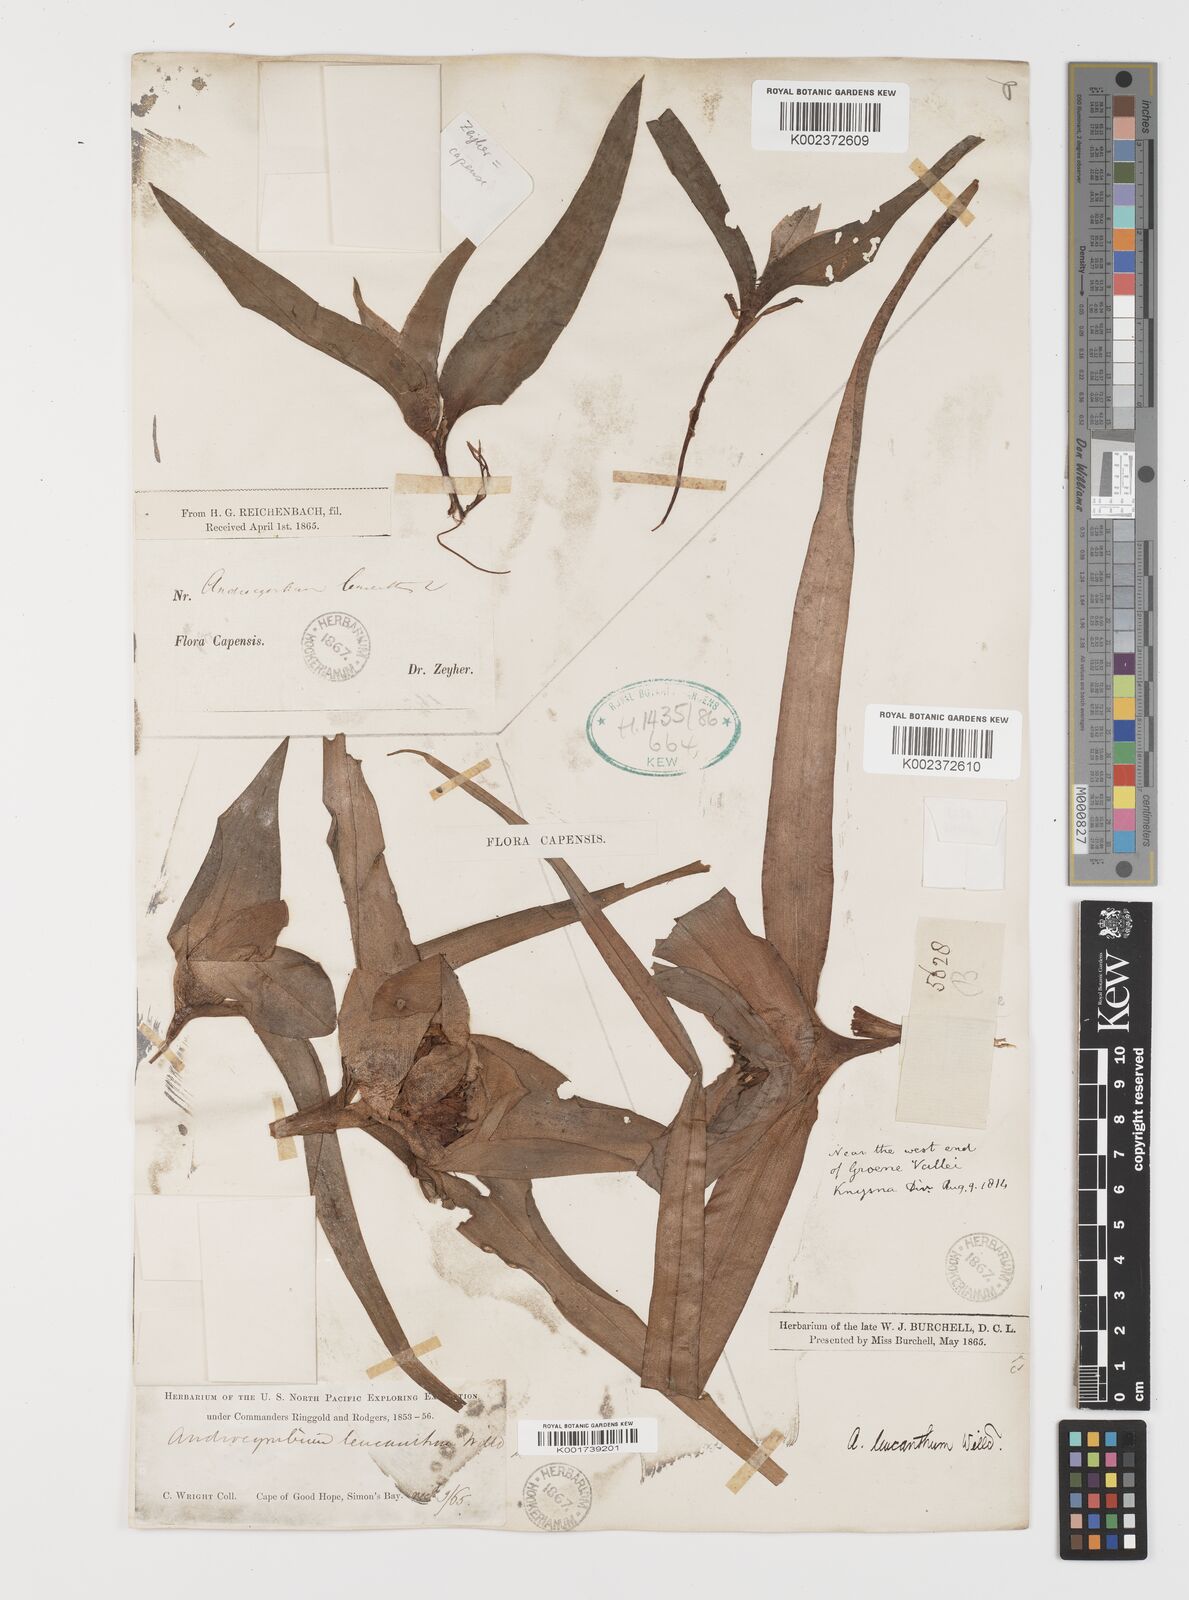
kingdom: Plantae
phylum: Tracheophyta
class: Liliopsida
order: Liliales
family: Colchicaceae
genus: Colchicum
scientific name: Colchicum capense
